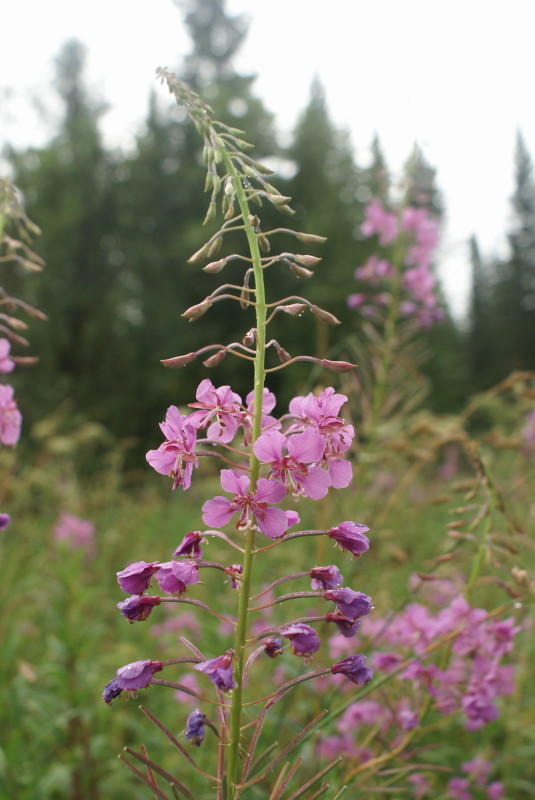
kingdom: Plantae
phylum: Tracheophyta
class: Magnoliopsida
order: Myrtales
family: Onagraceae
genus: Chamaenerion
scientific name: Chamaenerion angustifolium
